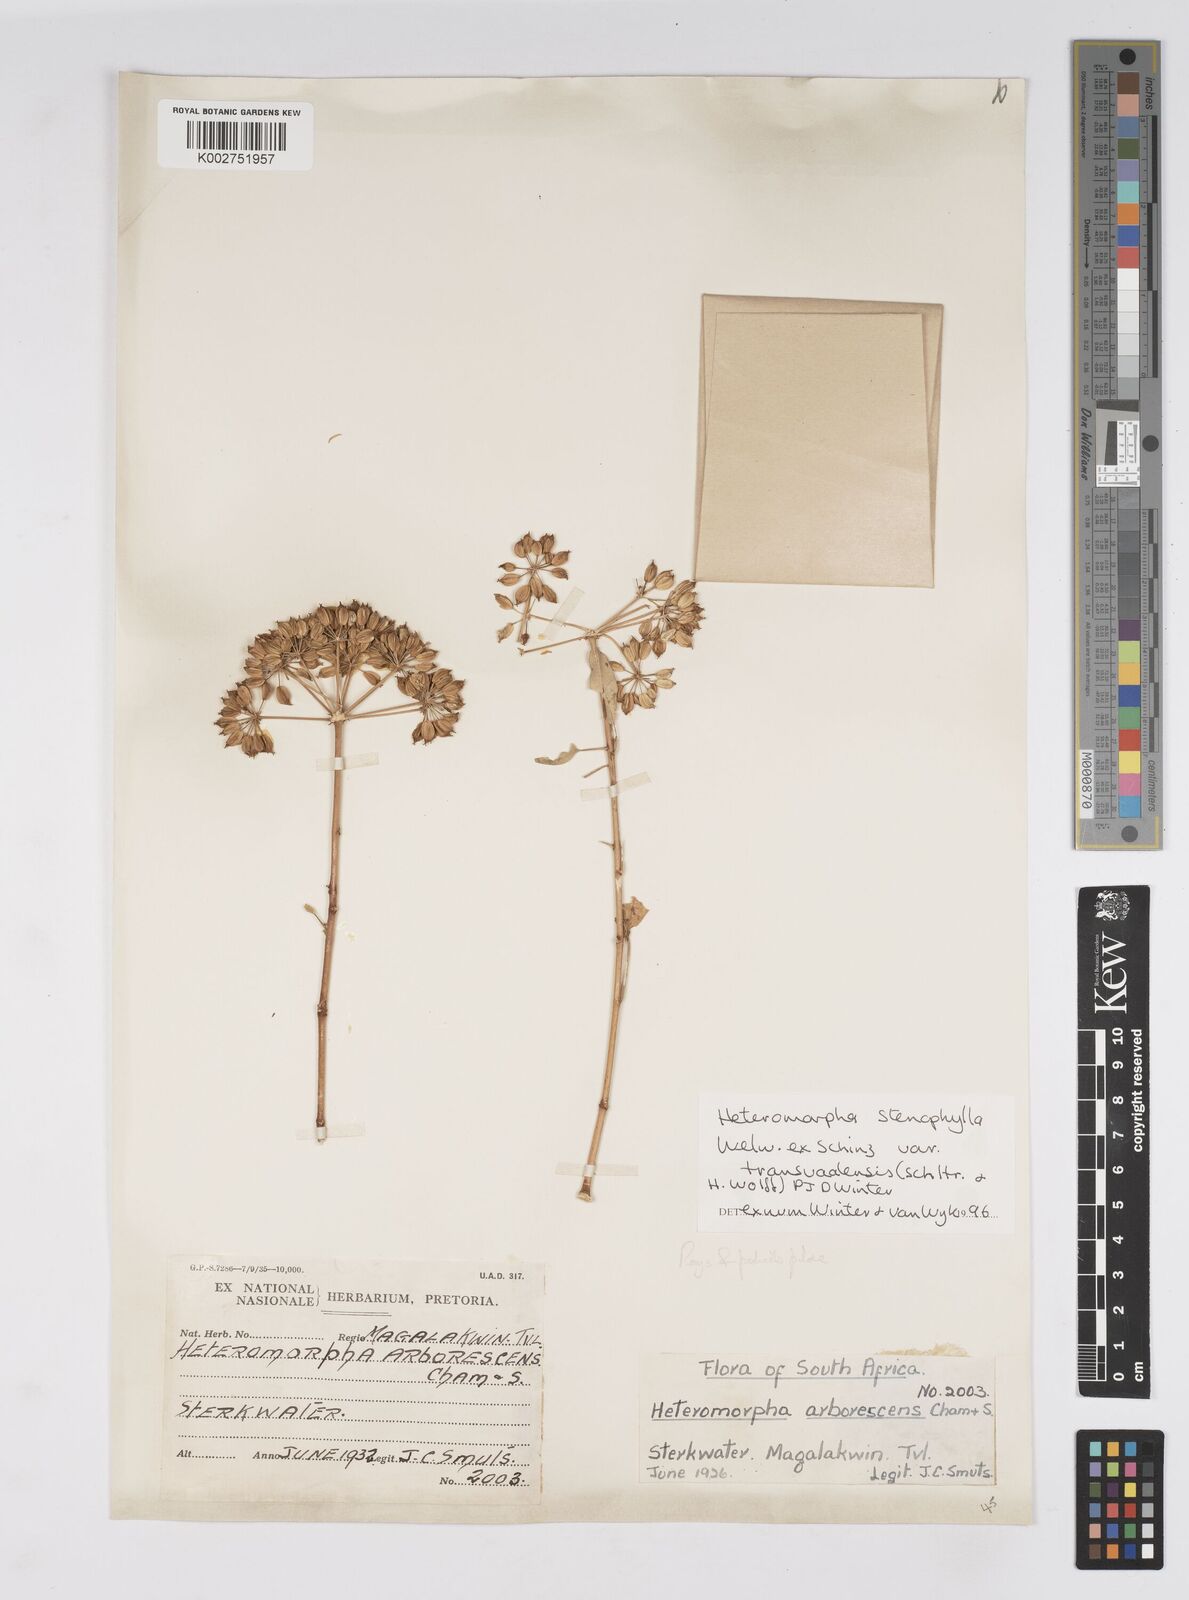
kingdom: Plantae
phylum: Tracheophyta
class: Magnoliopsida
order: Apiales
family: Apiaceae
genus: Heteromorpha
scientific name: Heteromorpha stenophylla
